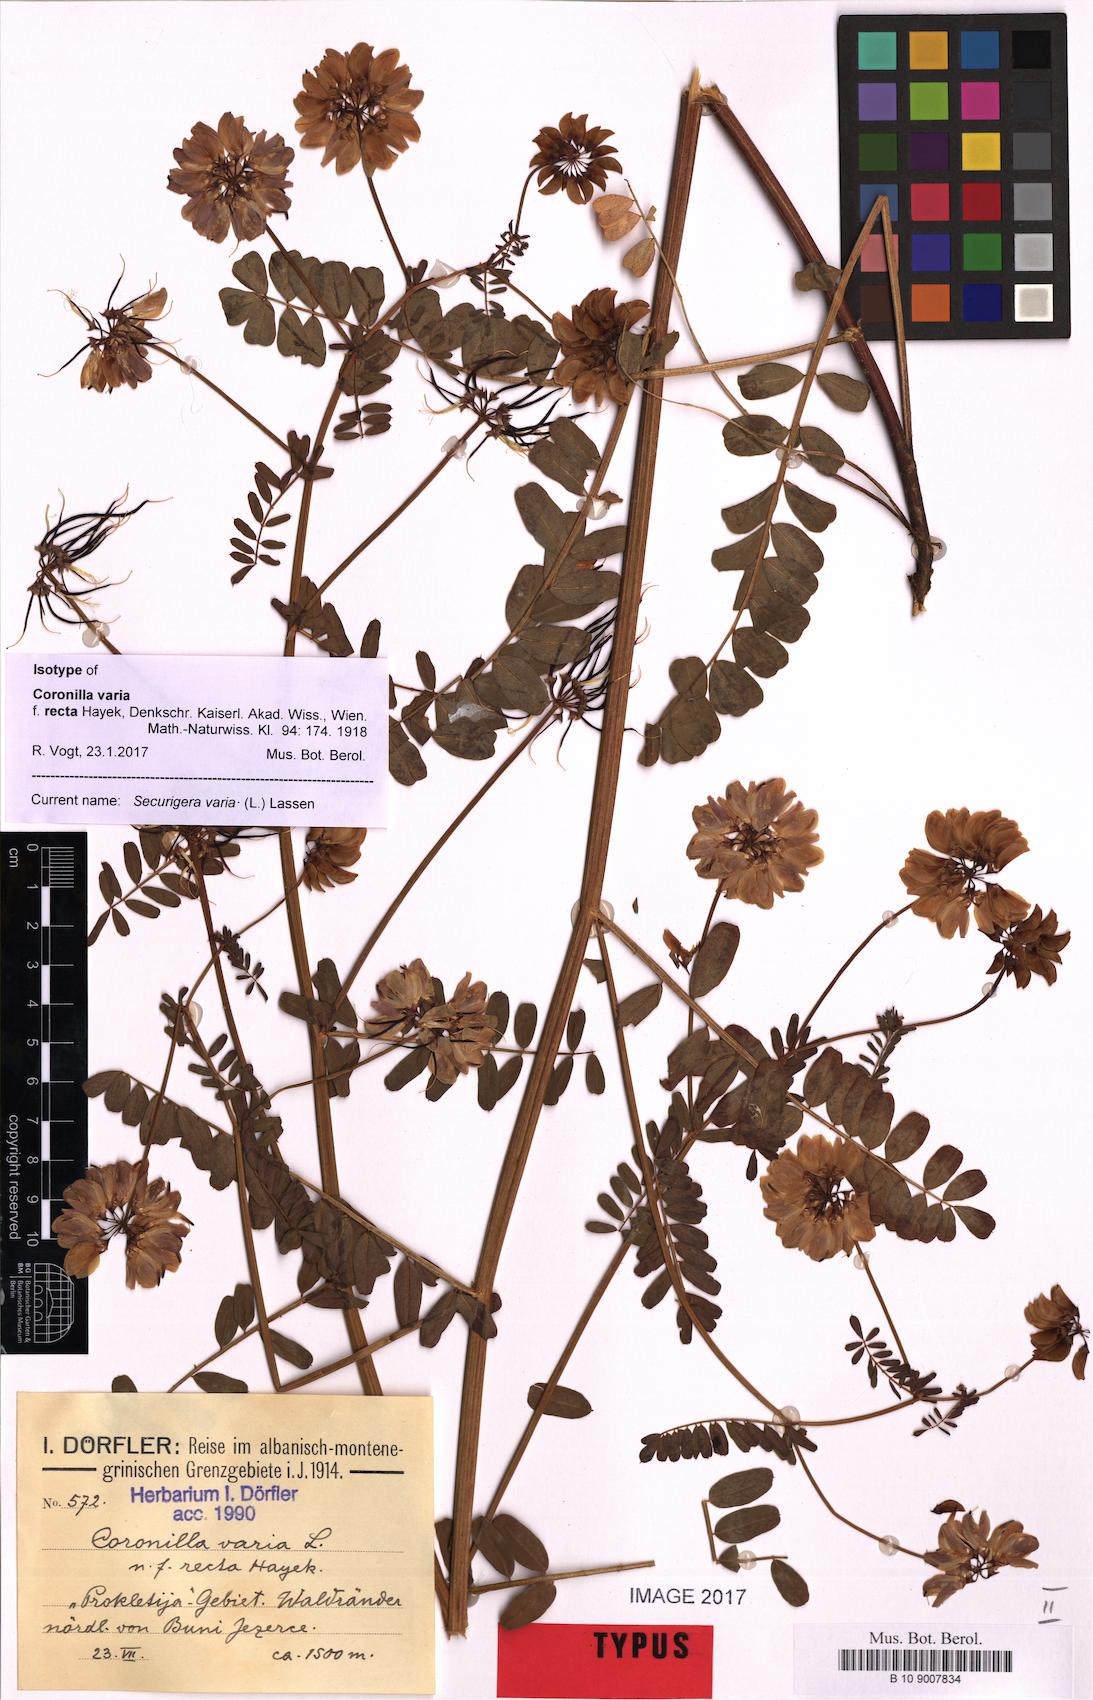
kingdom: Plantae
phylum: Tracheophyta
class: Magnoliopsida
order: Fabales
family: Fabaceae
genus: Coronilla
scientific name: Coronilla varia
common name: Crownvetch
